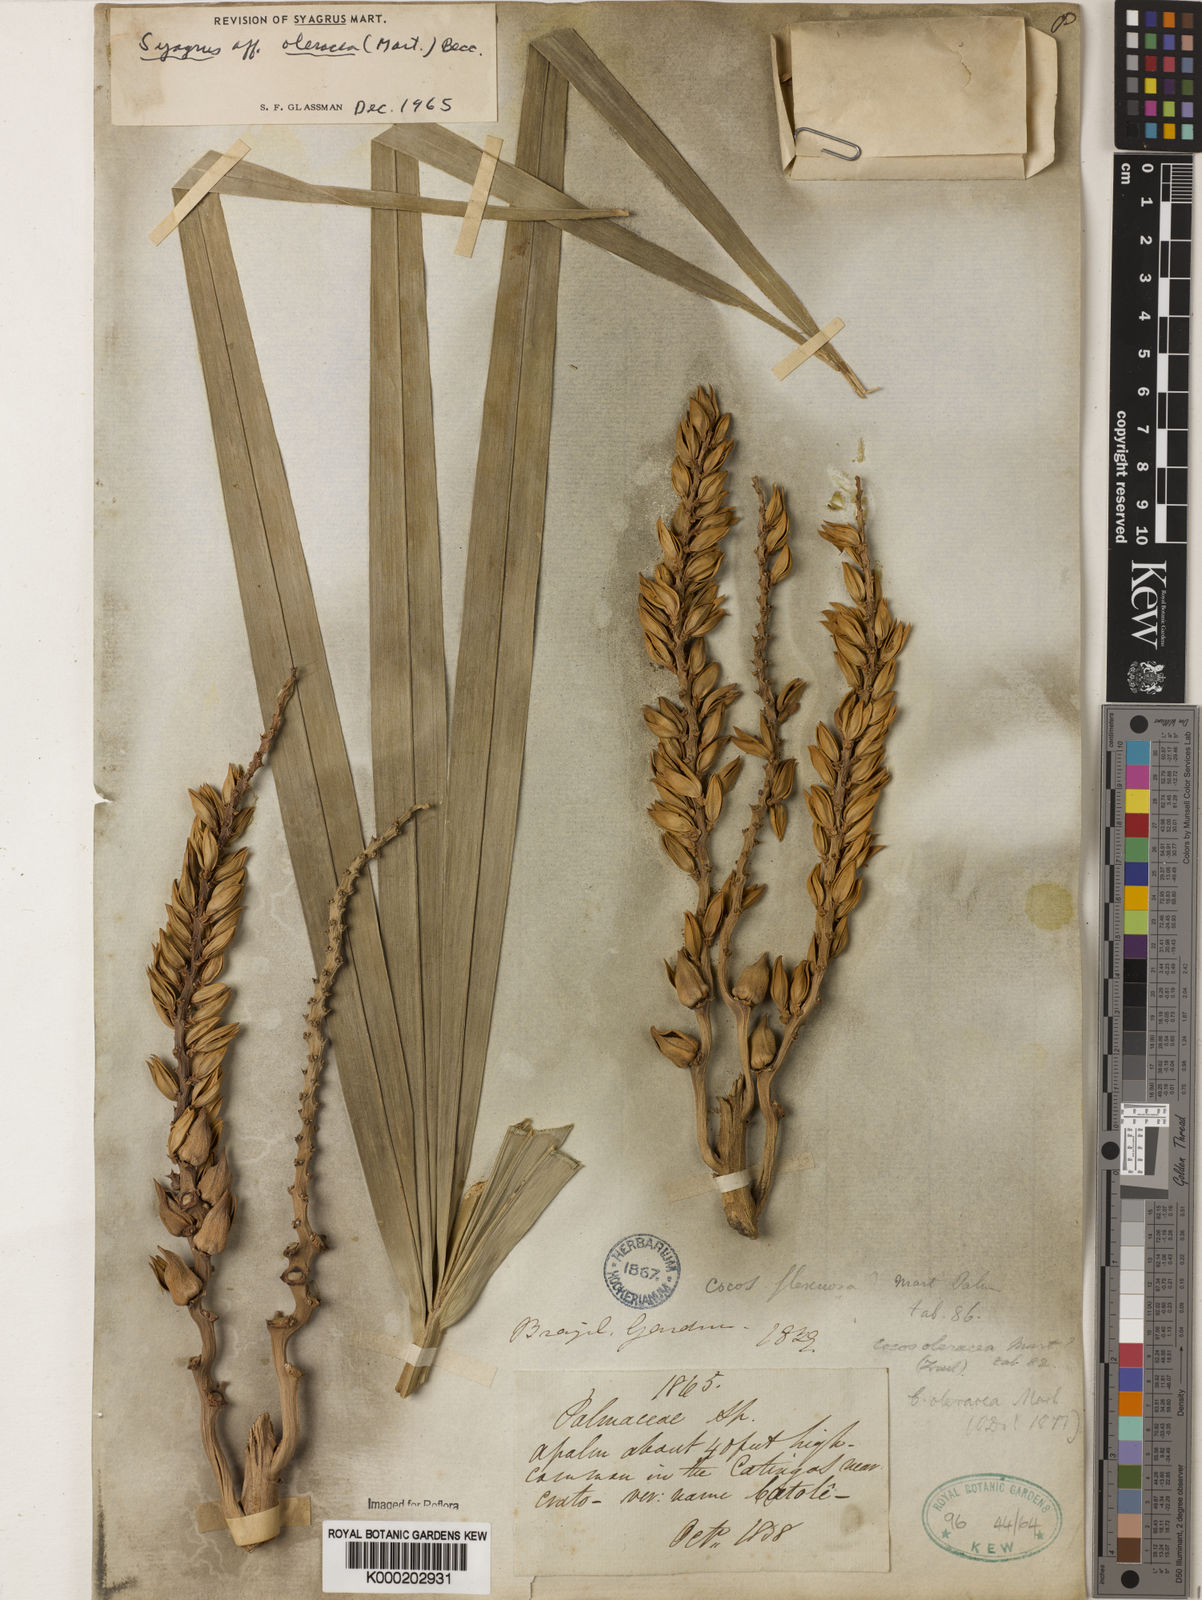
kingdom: Plantae
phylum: Tracheophyta
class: Liliopsida
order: Arecales
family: Arecaceae
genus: Syagrus
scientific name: Syagrus oleracea
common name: Catole palm
